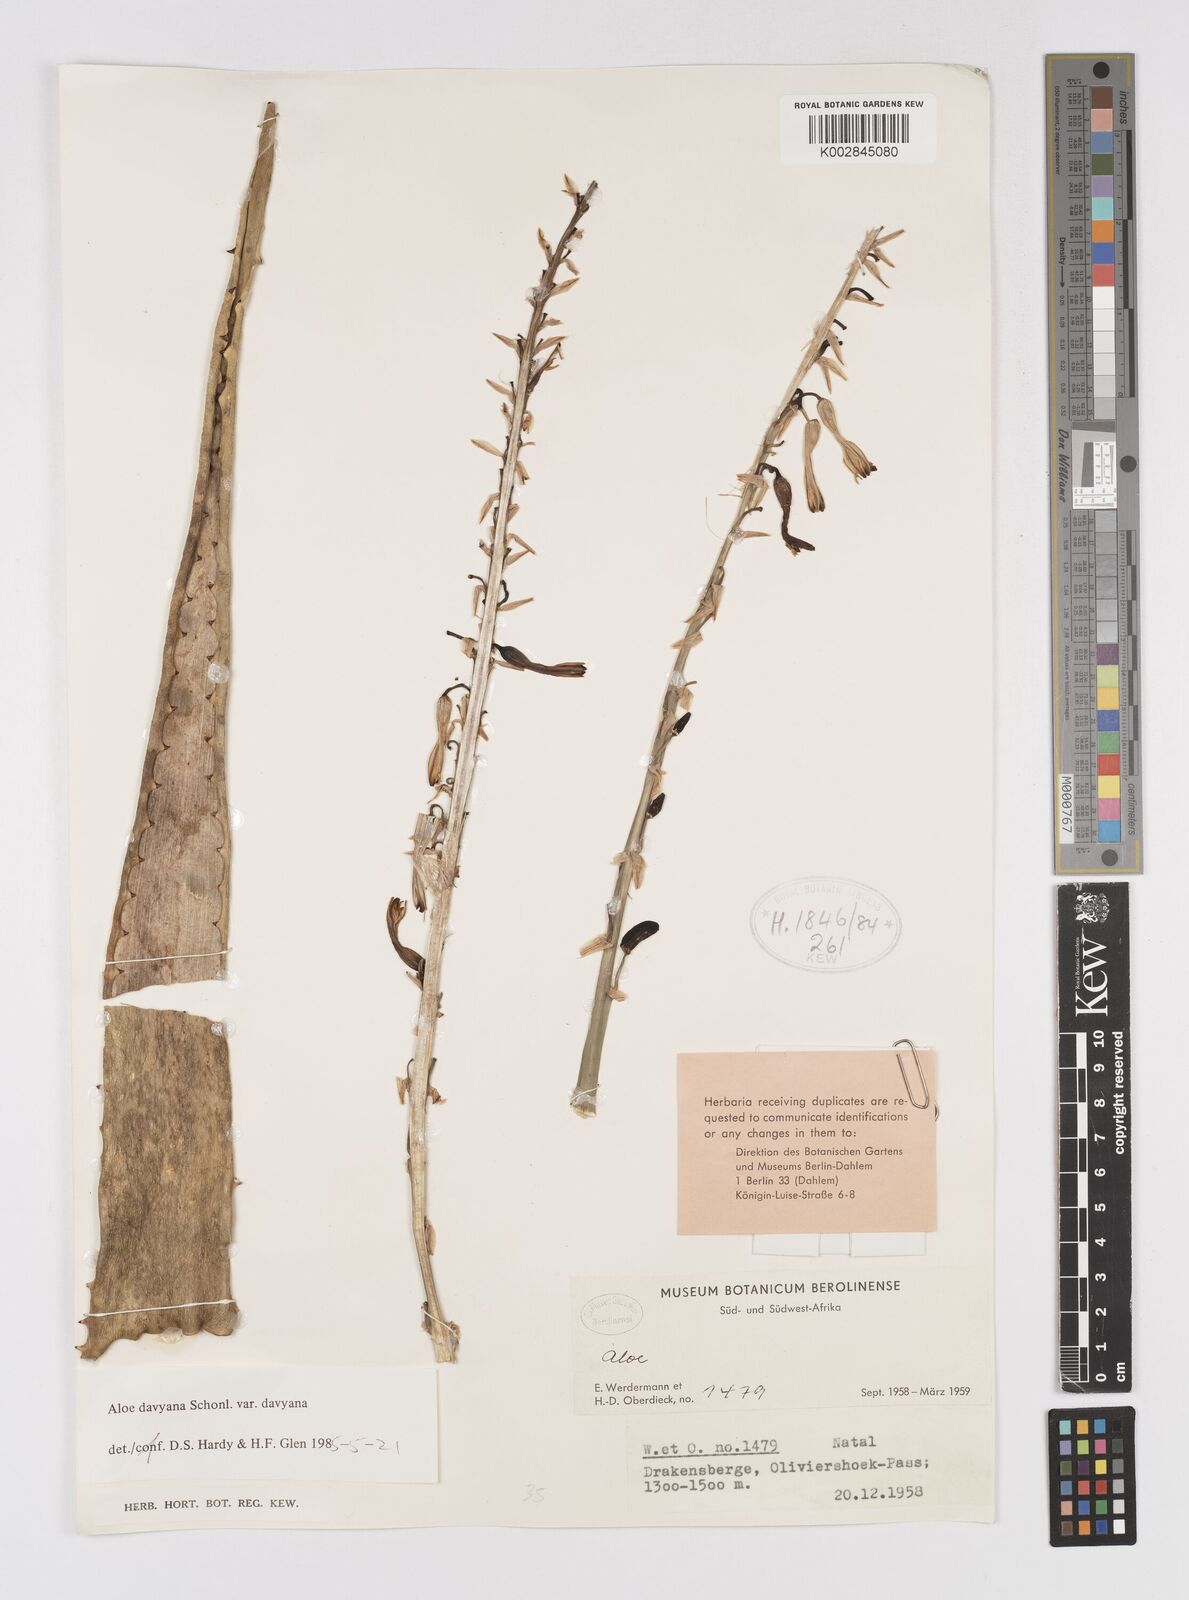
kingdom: Plantae
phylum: Tracheophyta
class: Liliopsida
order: Asparagales
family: Asphodelaceae
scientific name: Asphodelaceae
